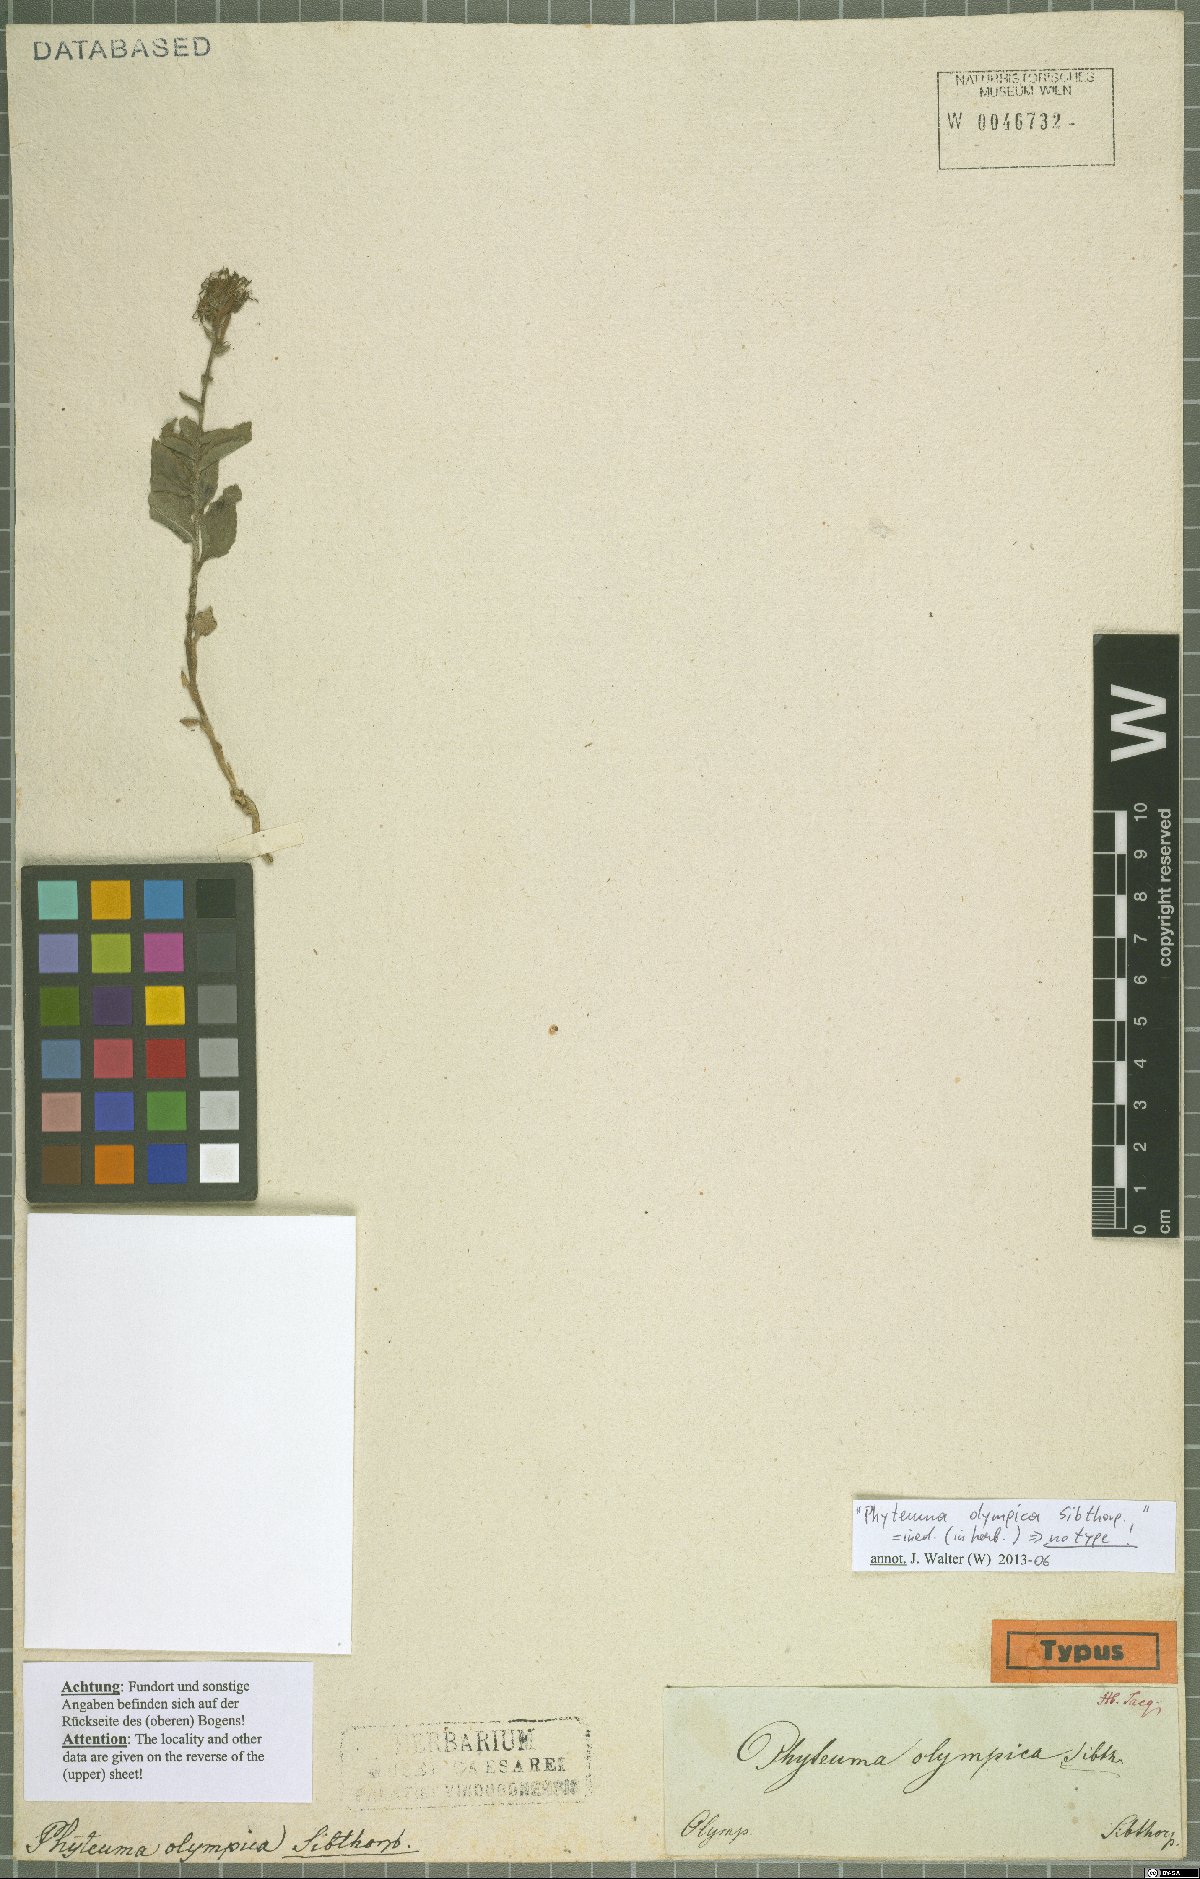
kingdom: Plantae
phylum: Tracheophyta
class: Magnoliopsida
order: Asterales
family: Campanulaceae
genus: Phyteuma
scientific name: Phyteuma
